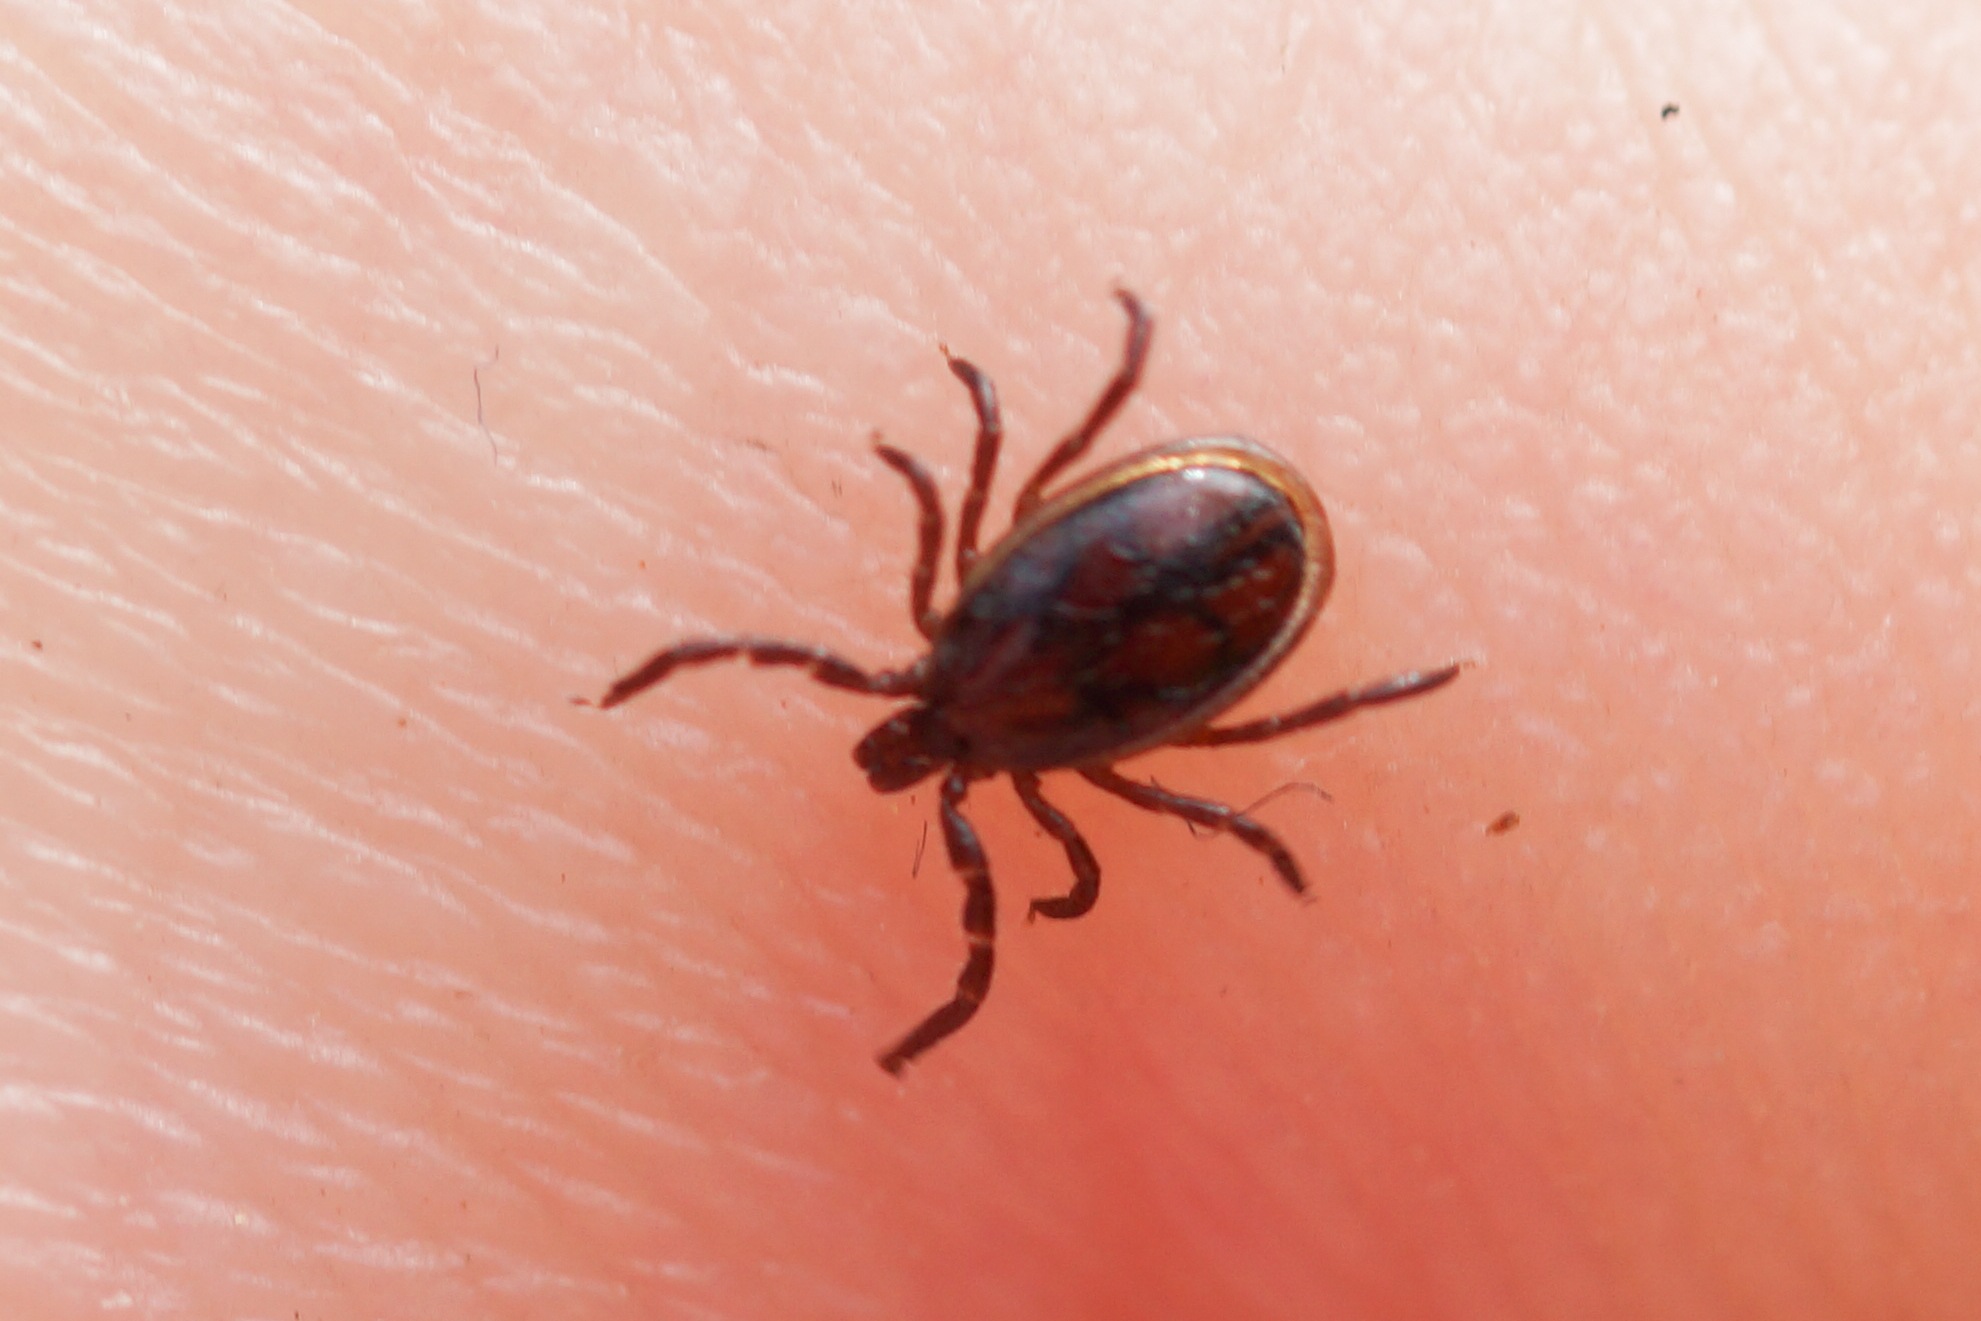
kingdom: Animalia
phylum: Arthropoda
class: Arachnida
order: Ixodida
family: Ixodidae
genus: Ixodes
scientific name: Ixodes ricinus
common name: Skovflåt
